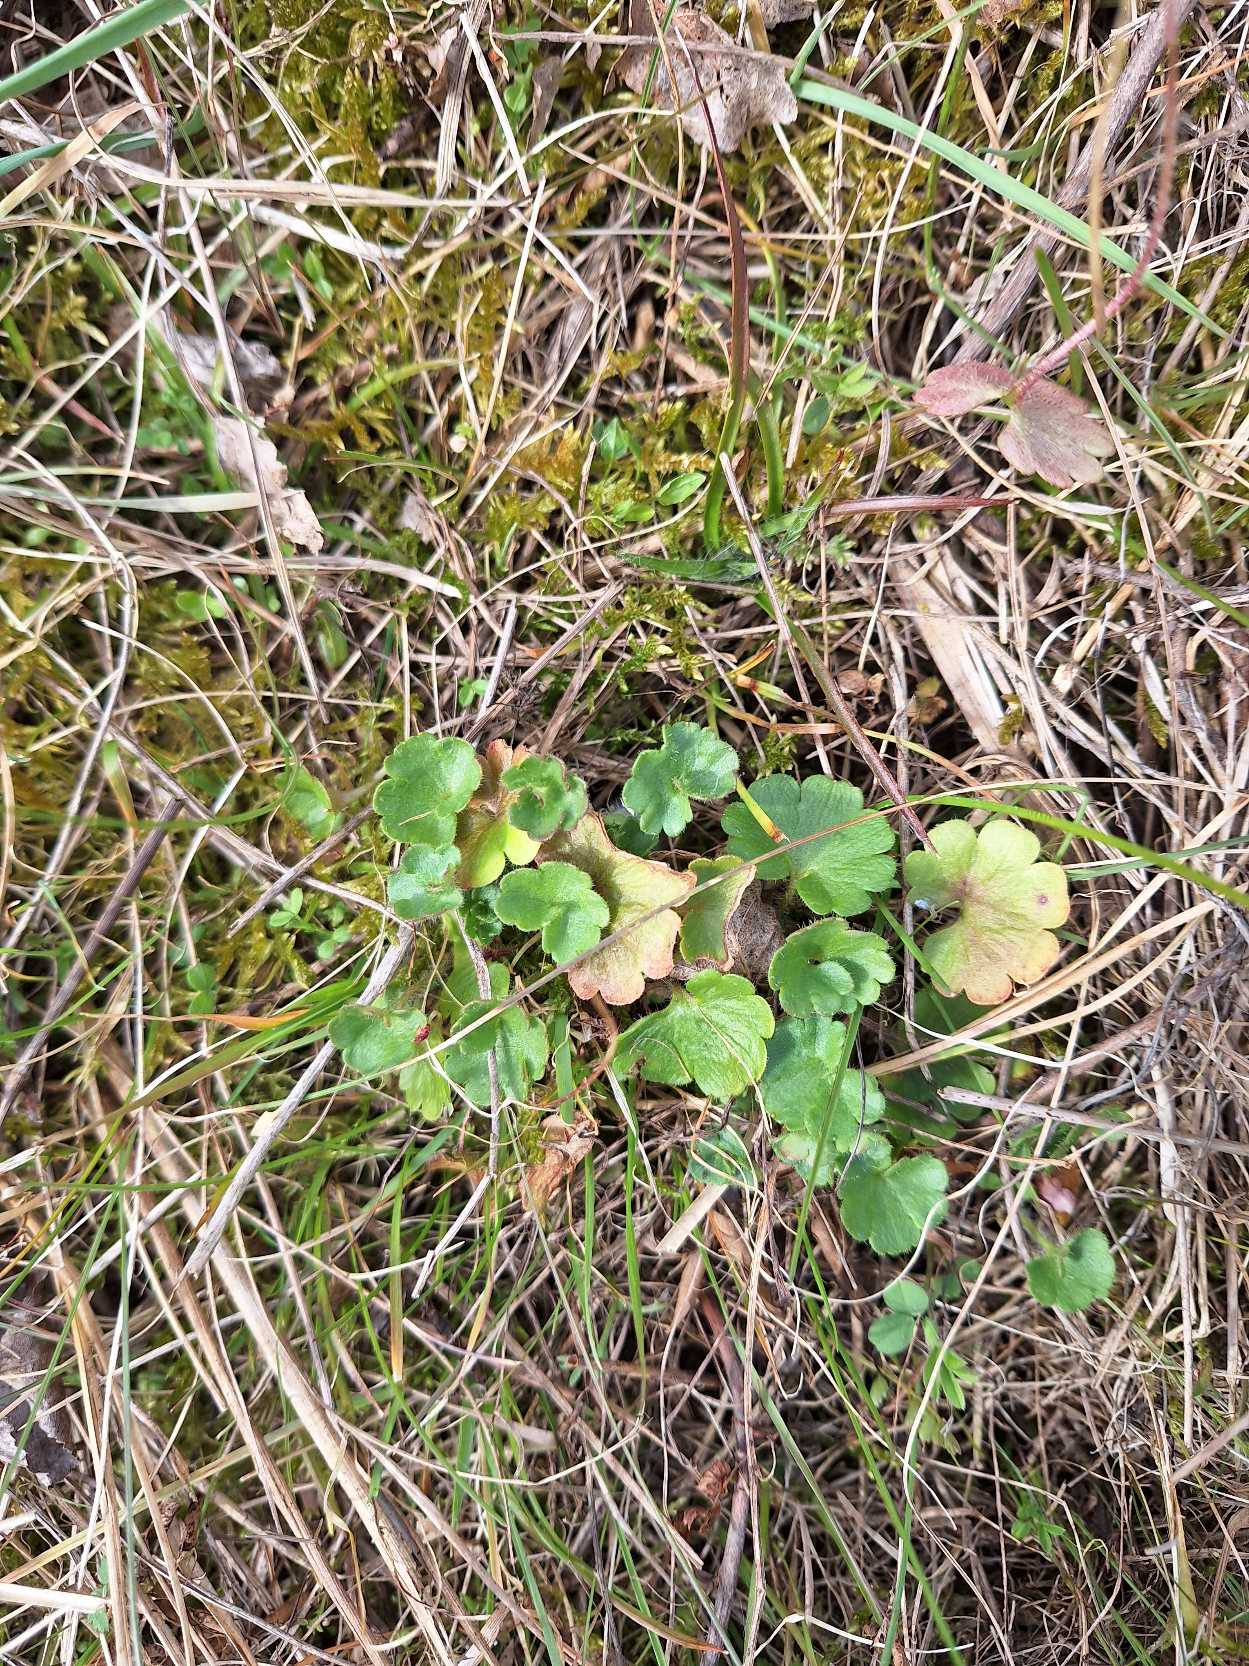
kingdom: Plantae
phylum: Tracheophyta
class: Magnoliopsida
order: Saxifragales
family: Saxifragaceae
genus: Saxifraga
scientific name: Saxifraga granulata
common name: Kornet stenbræk
